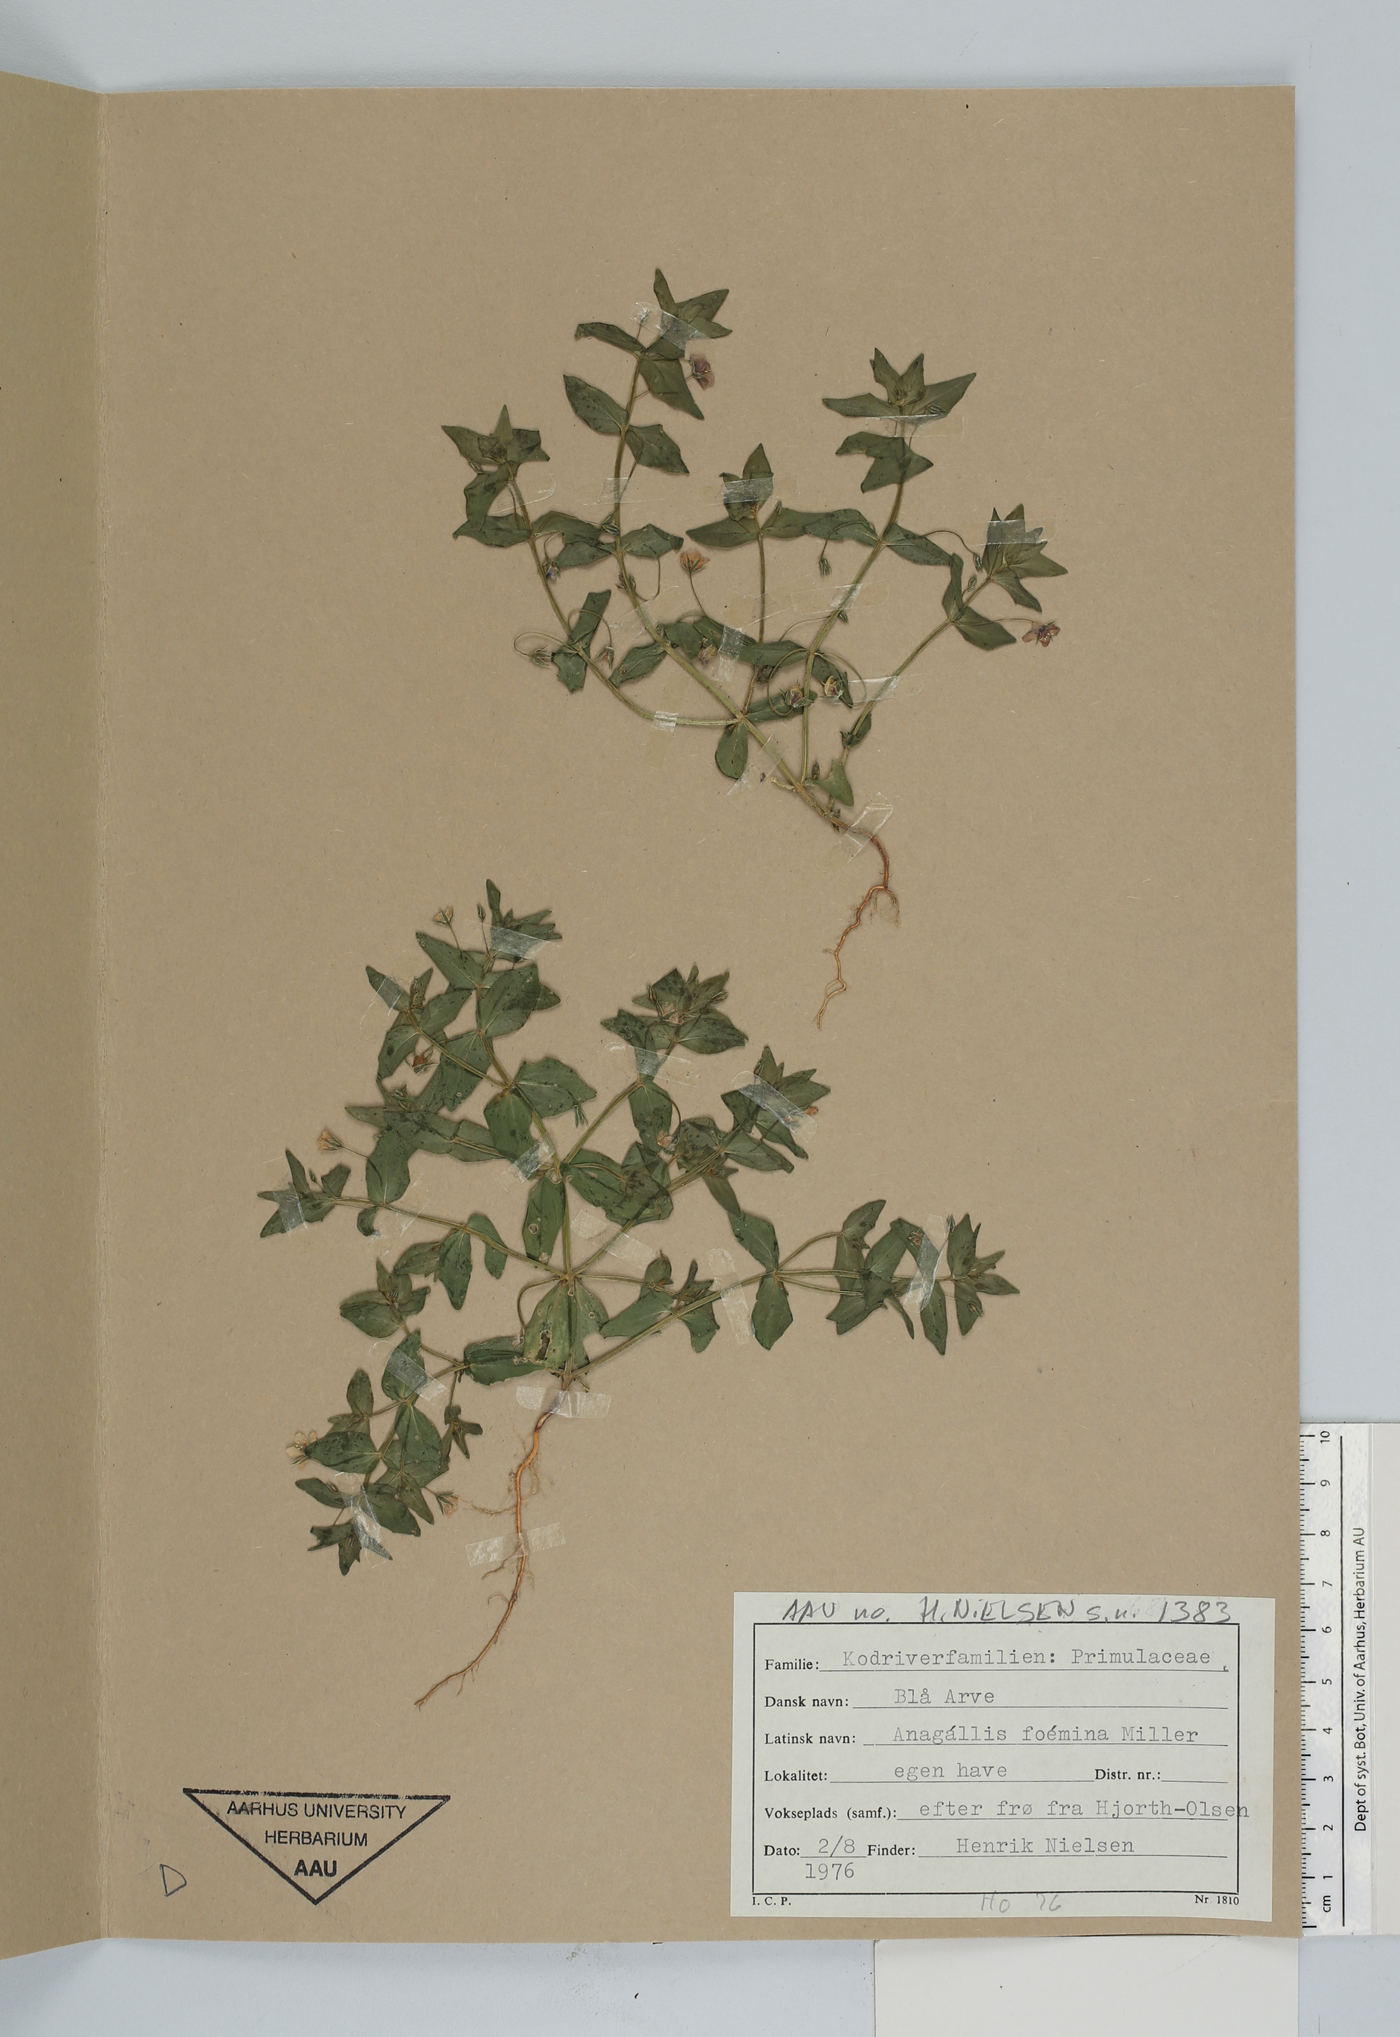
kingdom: Plantae
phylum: Tracheophyta
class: Magnoliopsida
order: Ericales
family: Primulaceae
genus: Lysimachia
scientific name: Lysimachia foemina
